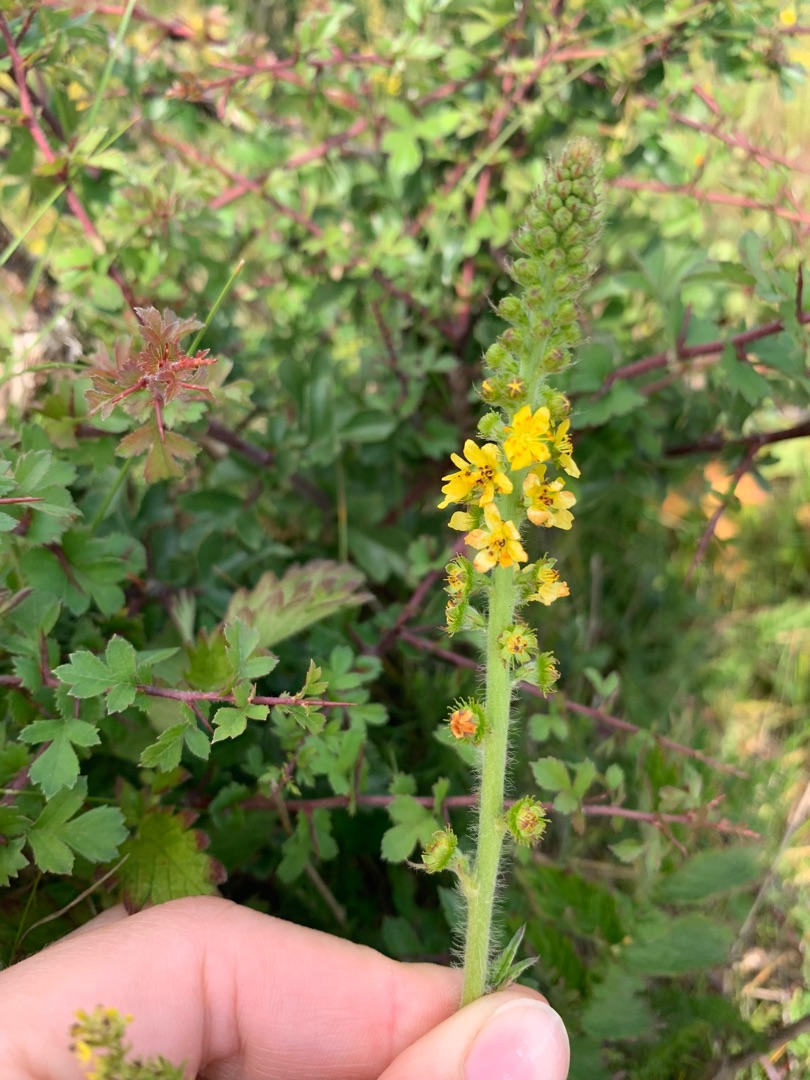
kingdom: Plantae
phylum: Tracheophyta
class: Magnoliopsida
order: Rosales
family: Rosaceae
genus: Agrimonia
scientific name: Agrimonia eupatoria
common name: Almindelig agermåne
